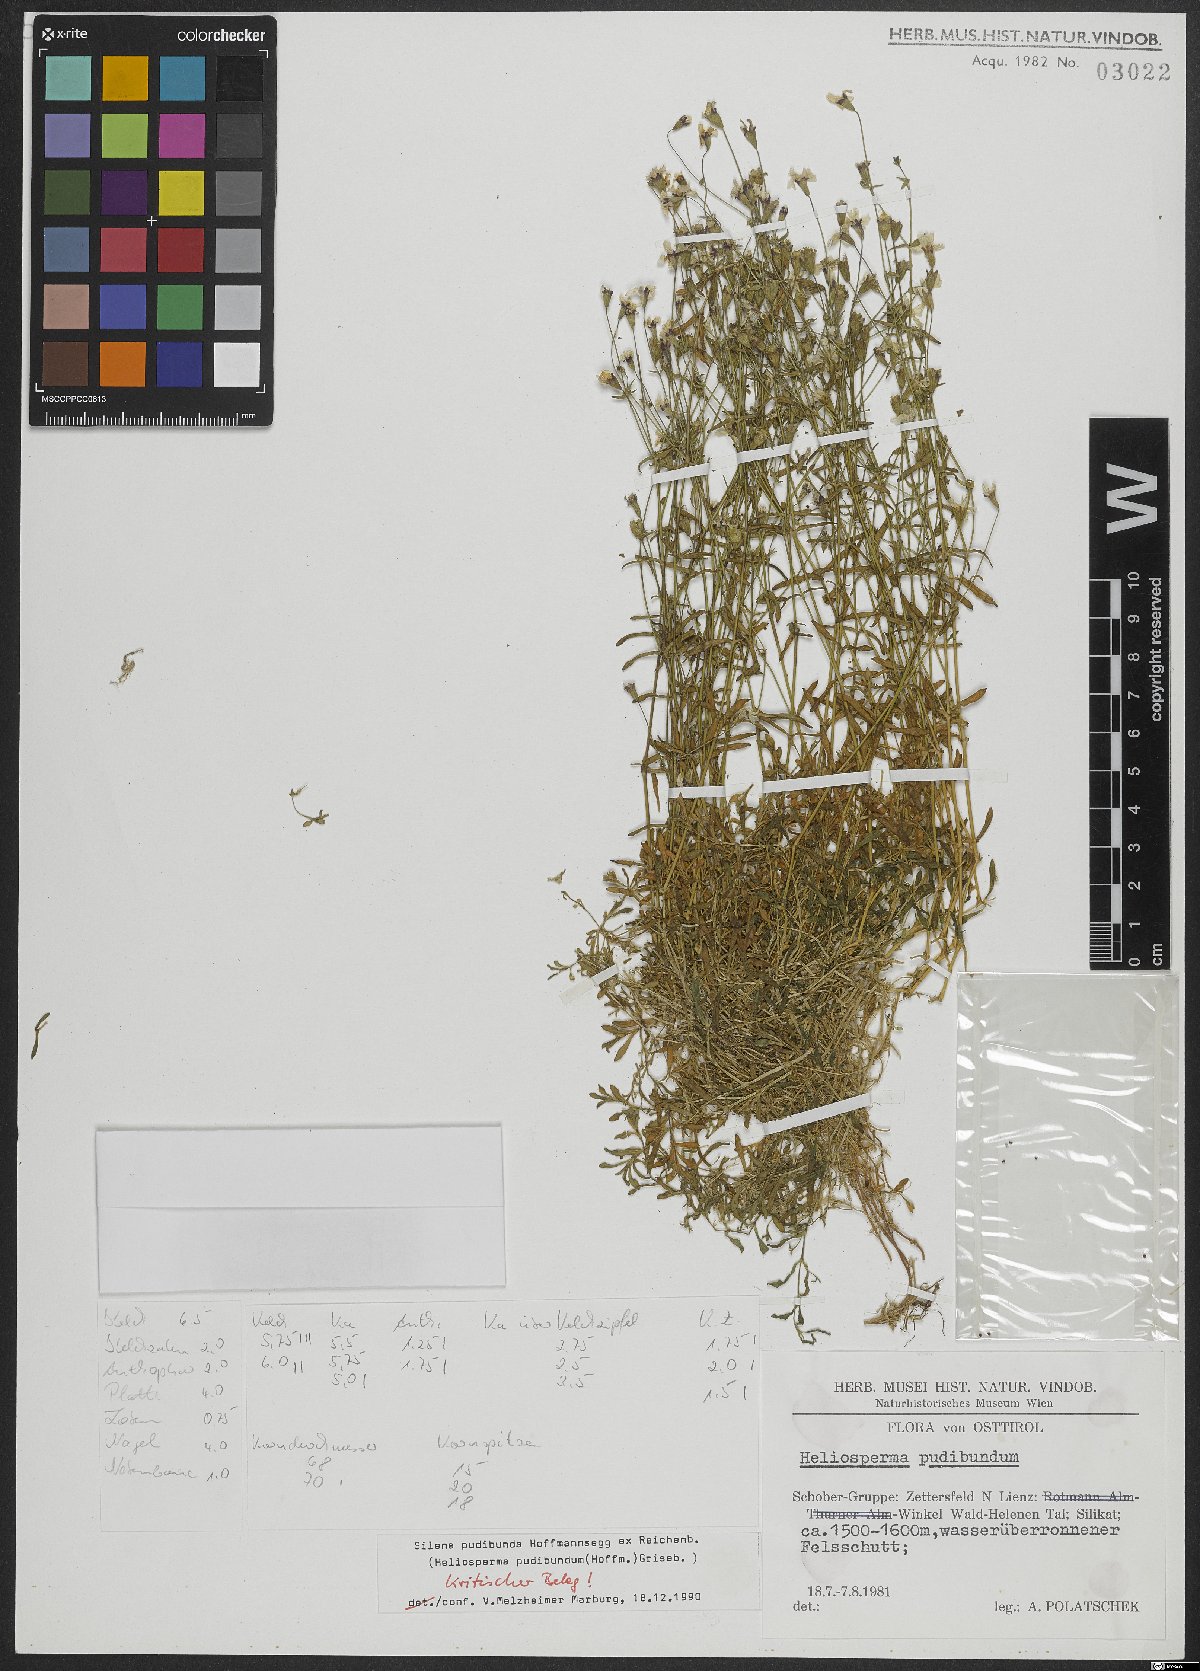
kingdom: Plantae
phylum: Tracheophyta
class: Magnoliopsida
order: Caryophyllales
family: Caryophyllaceae
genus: Heliosperma
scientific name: Heliosperma pudibundum
